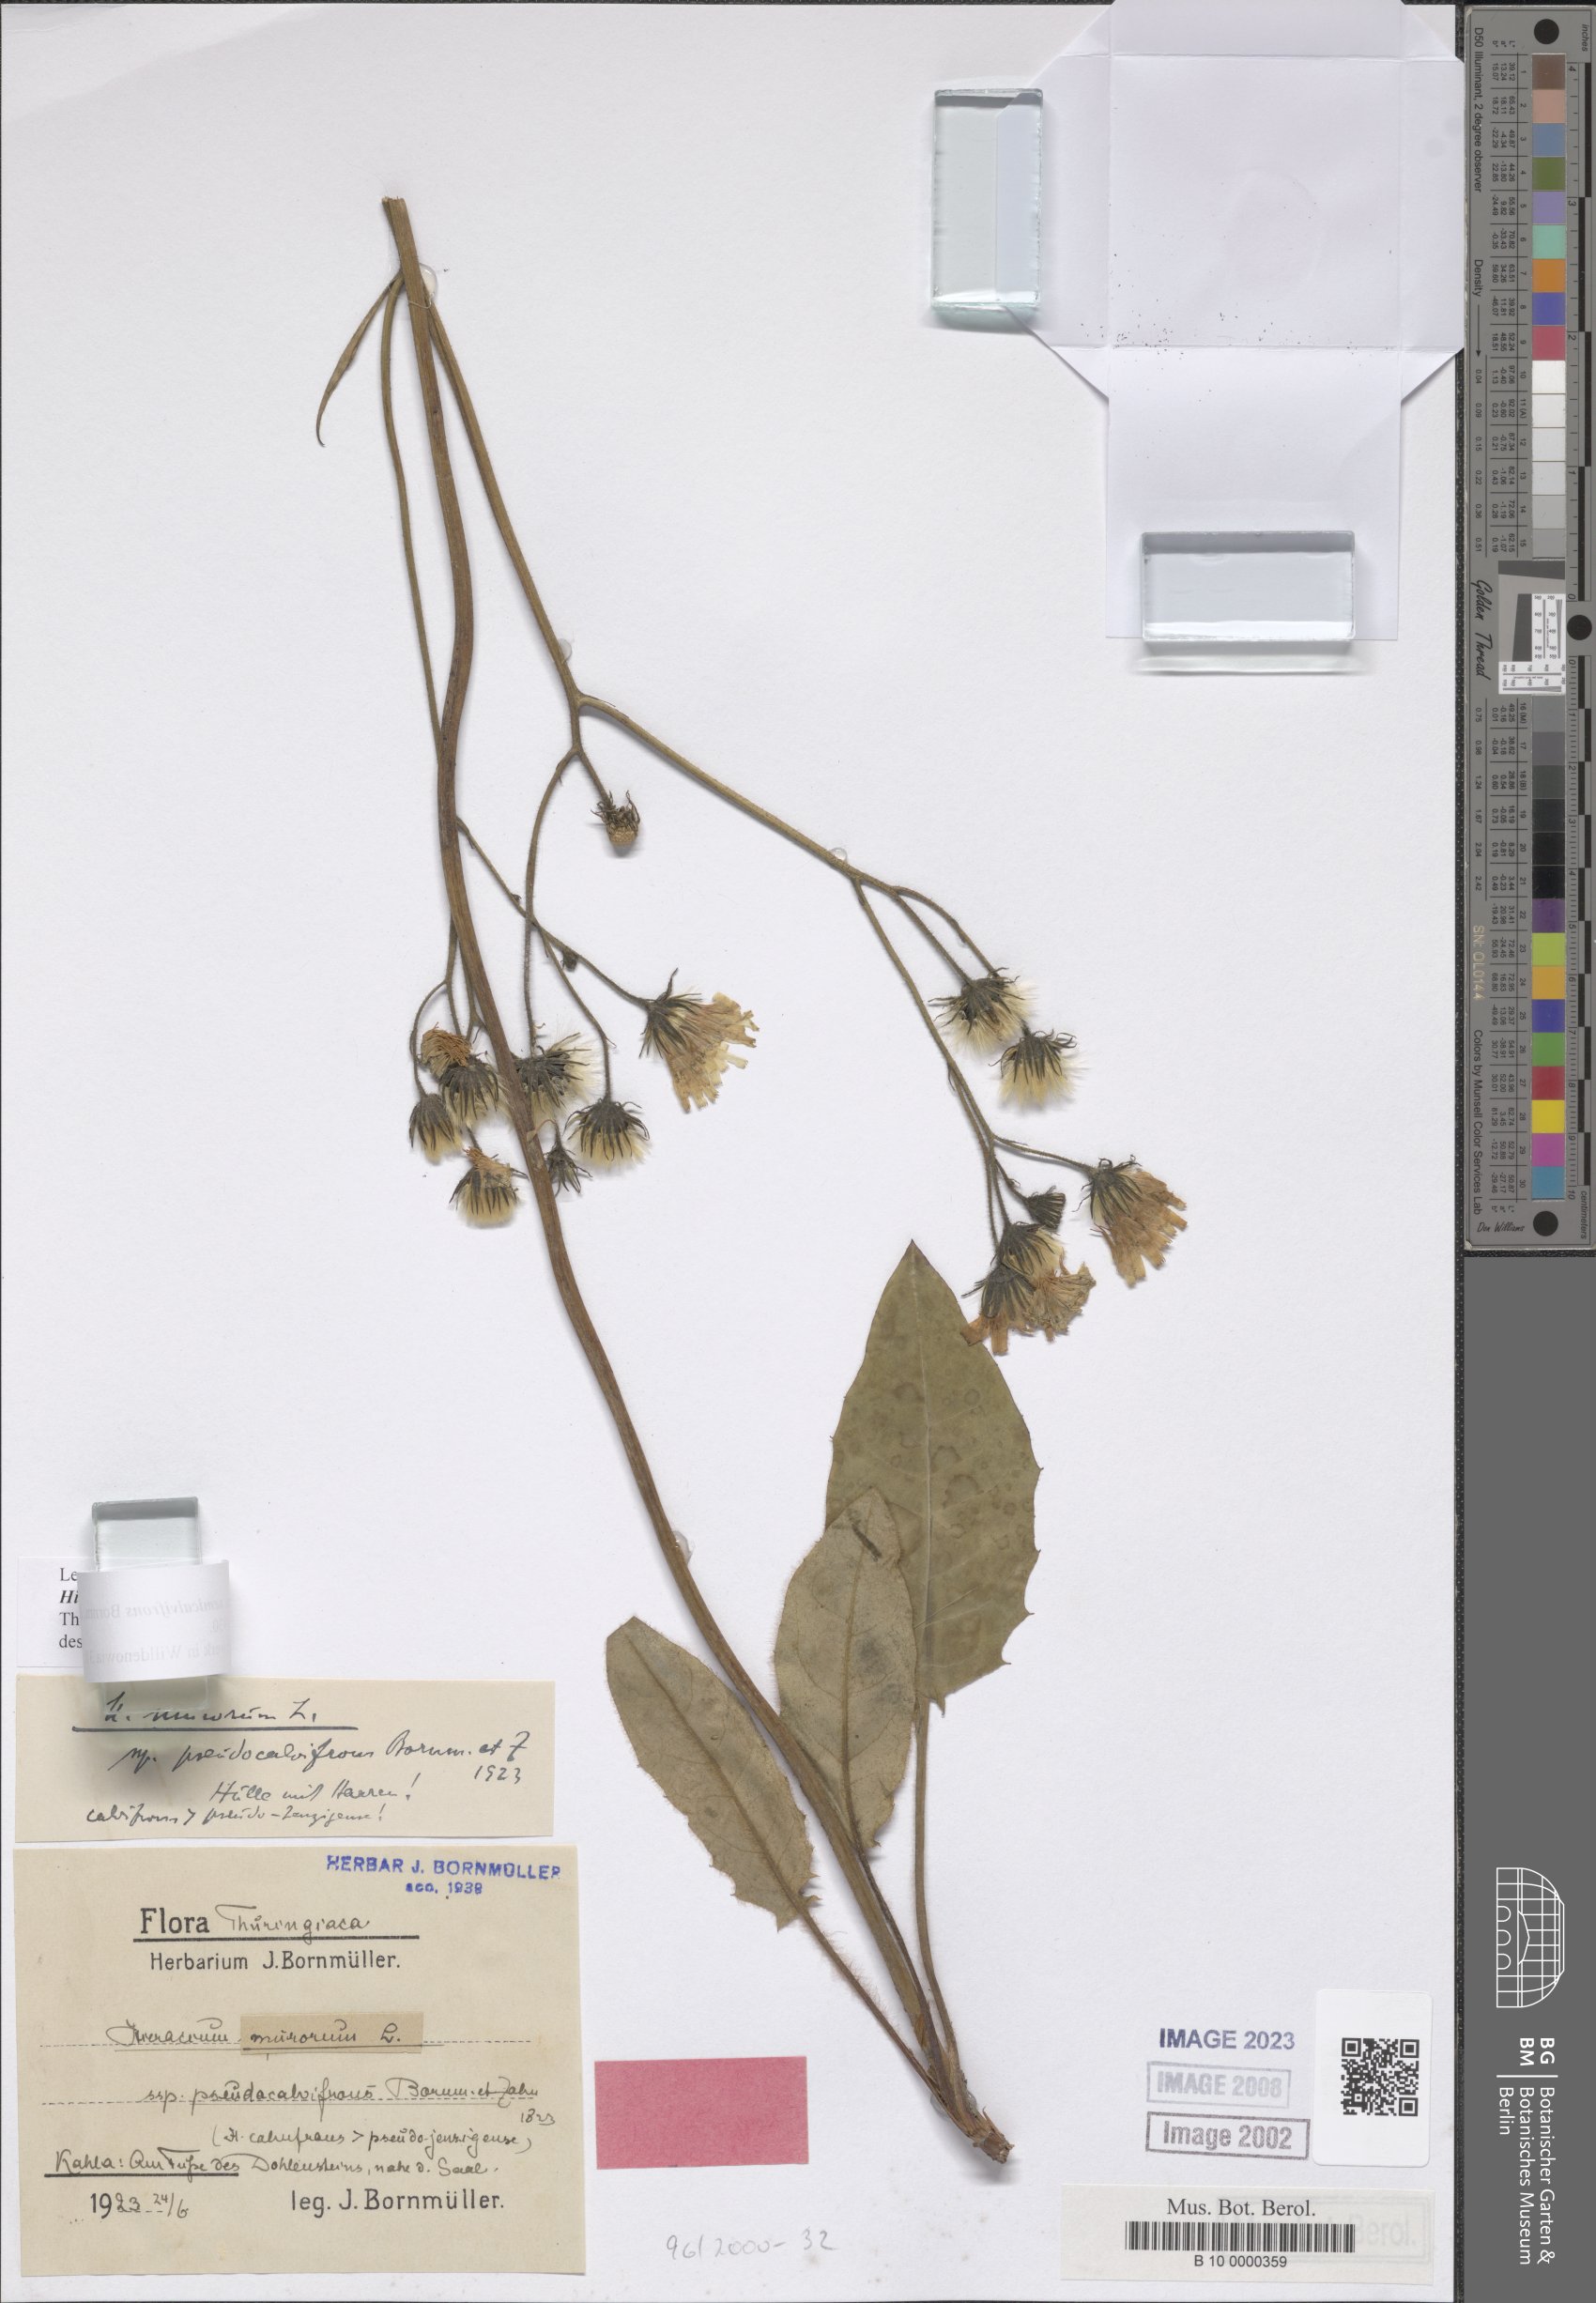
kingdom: Plantae
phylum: Tracheophyta
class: Magnoliopsida
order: Asterales
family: Asteraceae
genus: Hieracium
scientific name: Hieracium murorum
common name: Wall hawkweed
